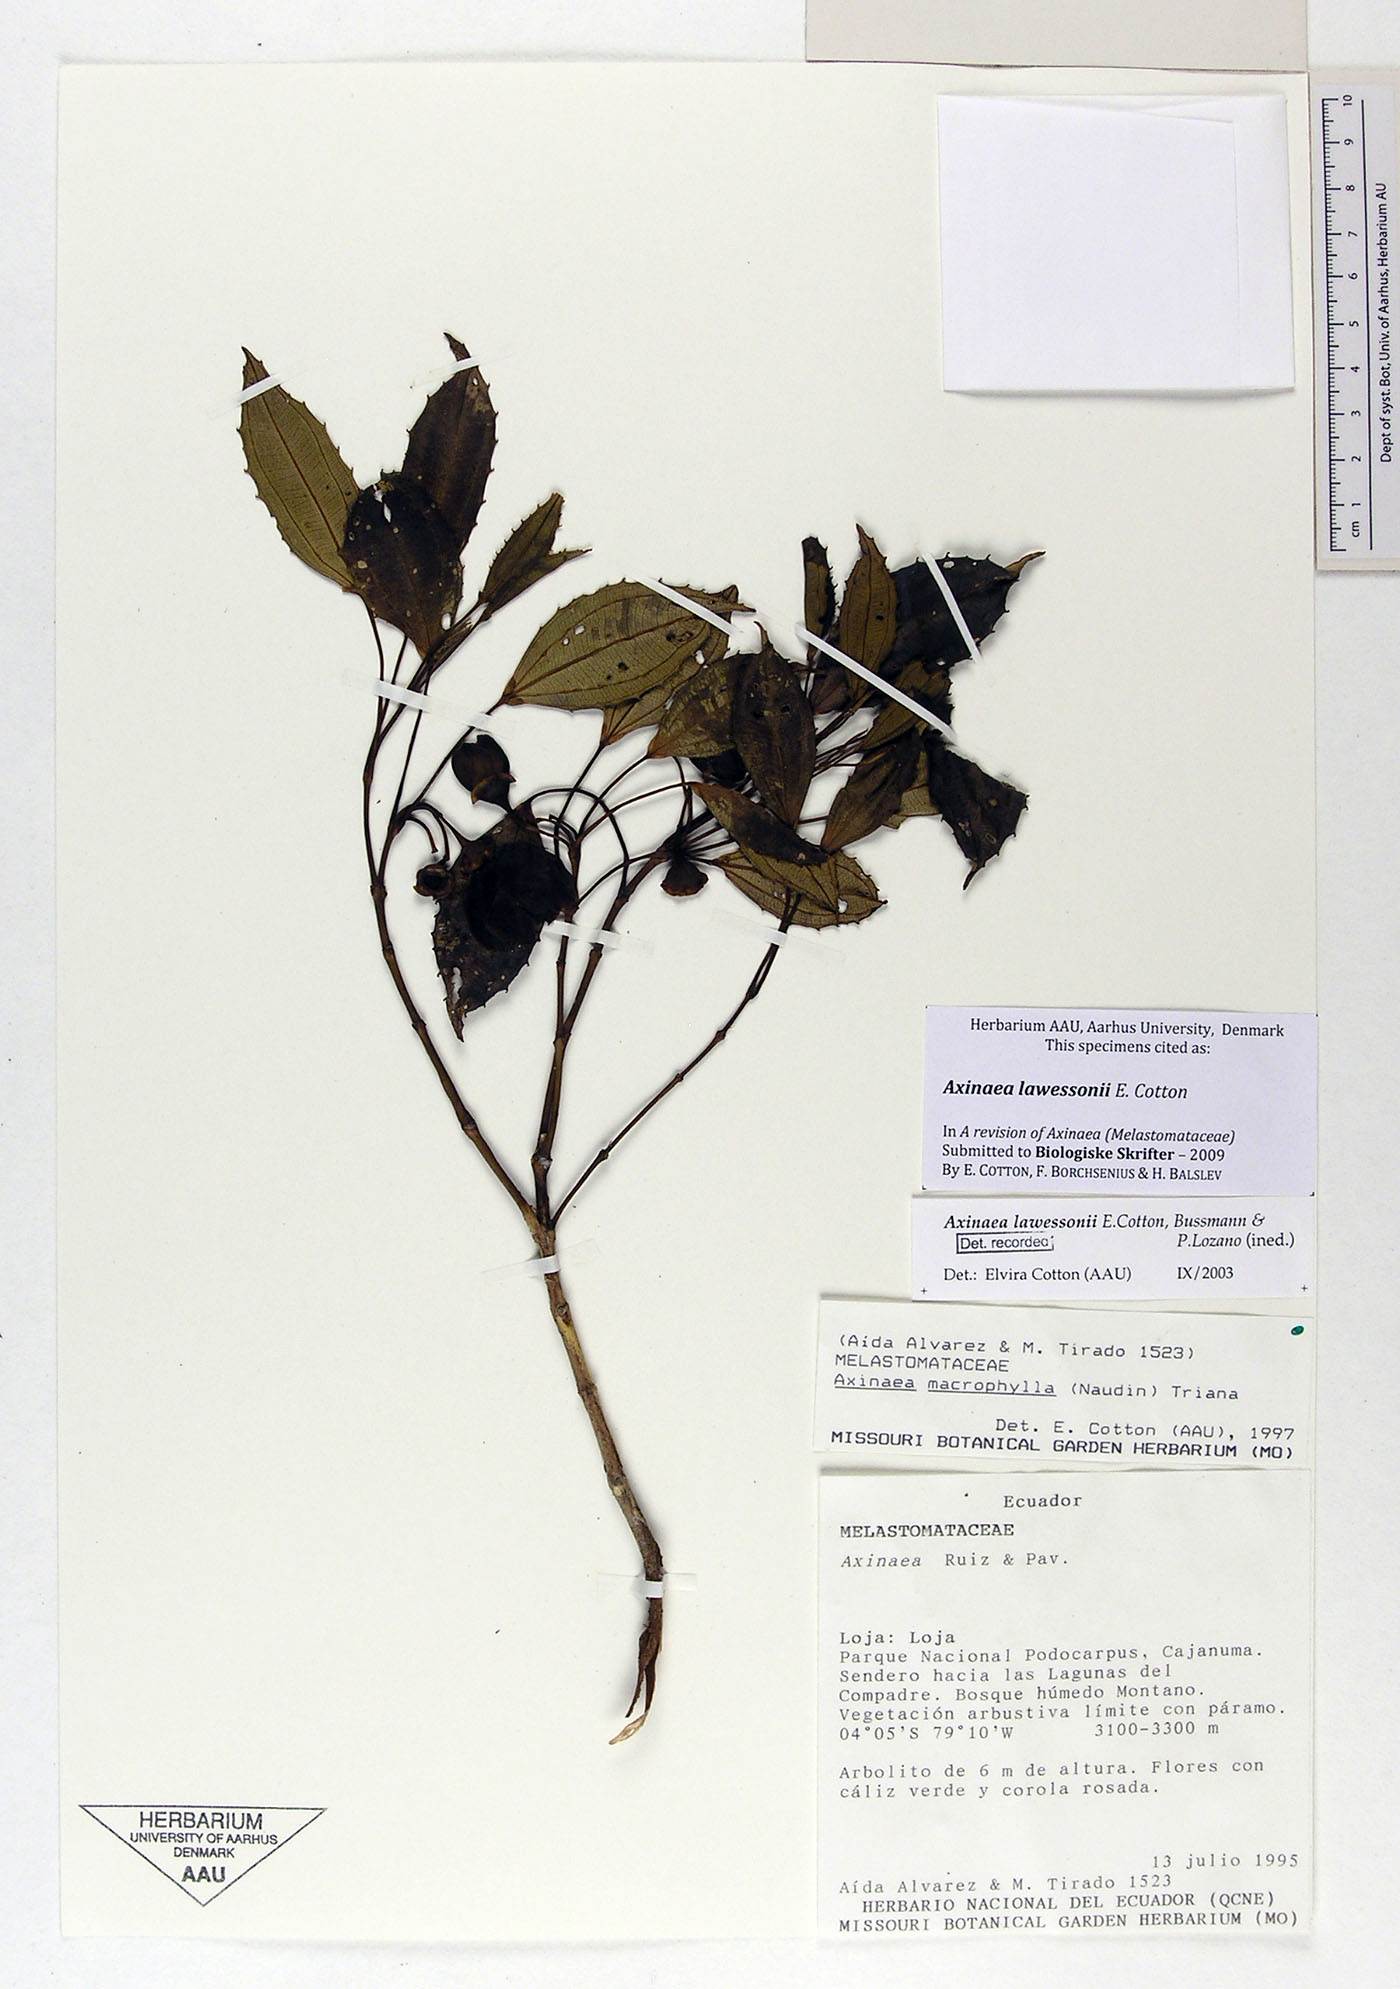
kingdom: Plantae
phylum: Tracheophyta
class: Magnoliopsida
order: Myrtales
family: Melastomataceae
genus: Axinaea
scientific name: Axinaea lawessonii
